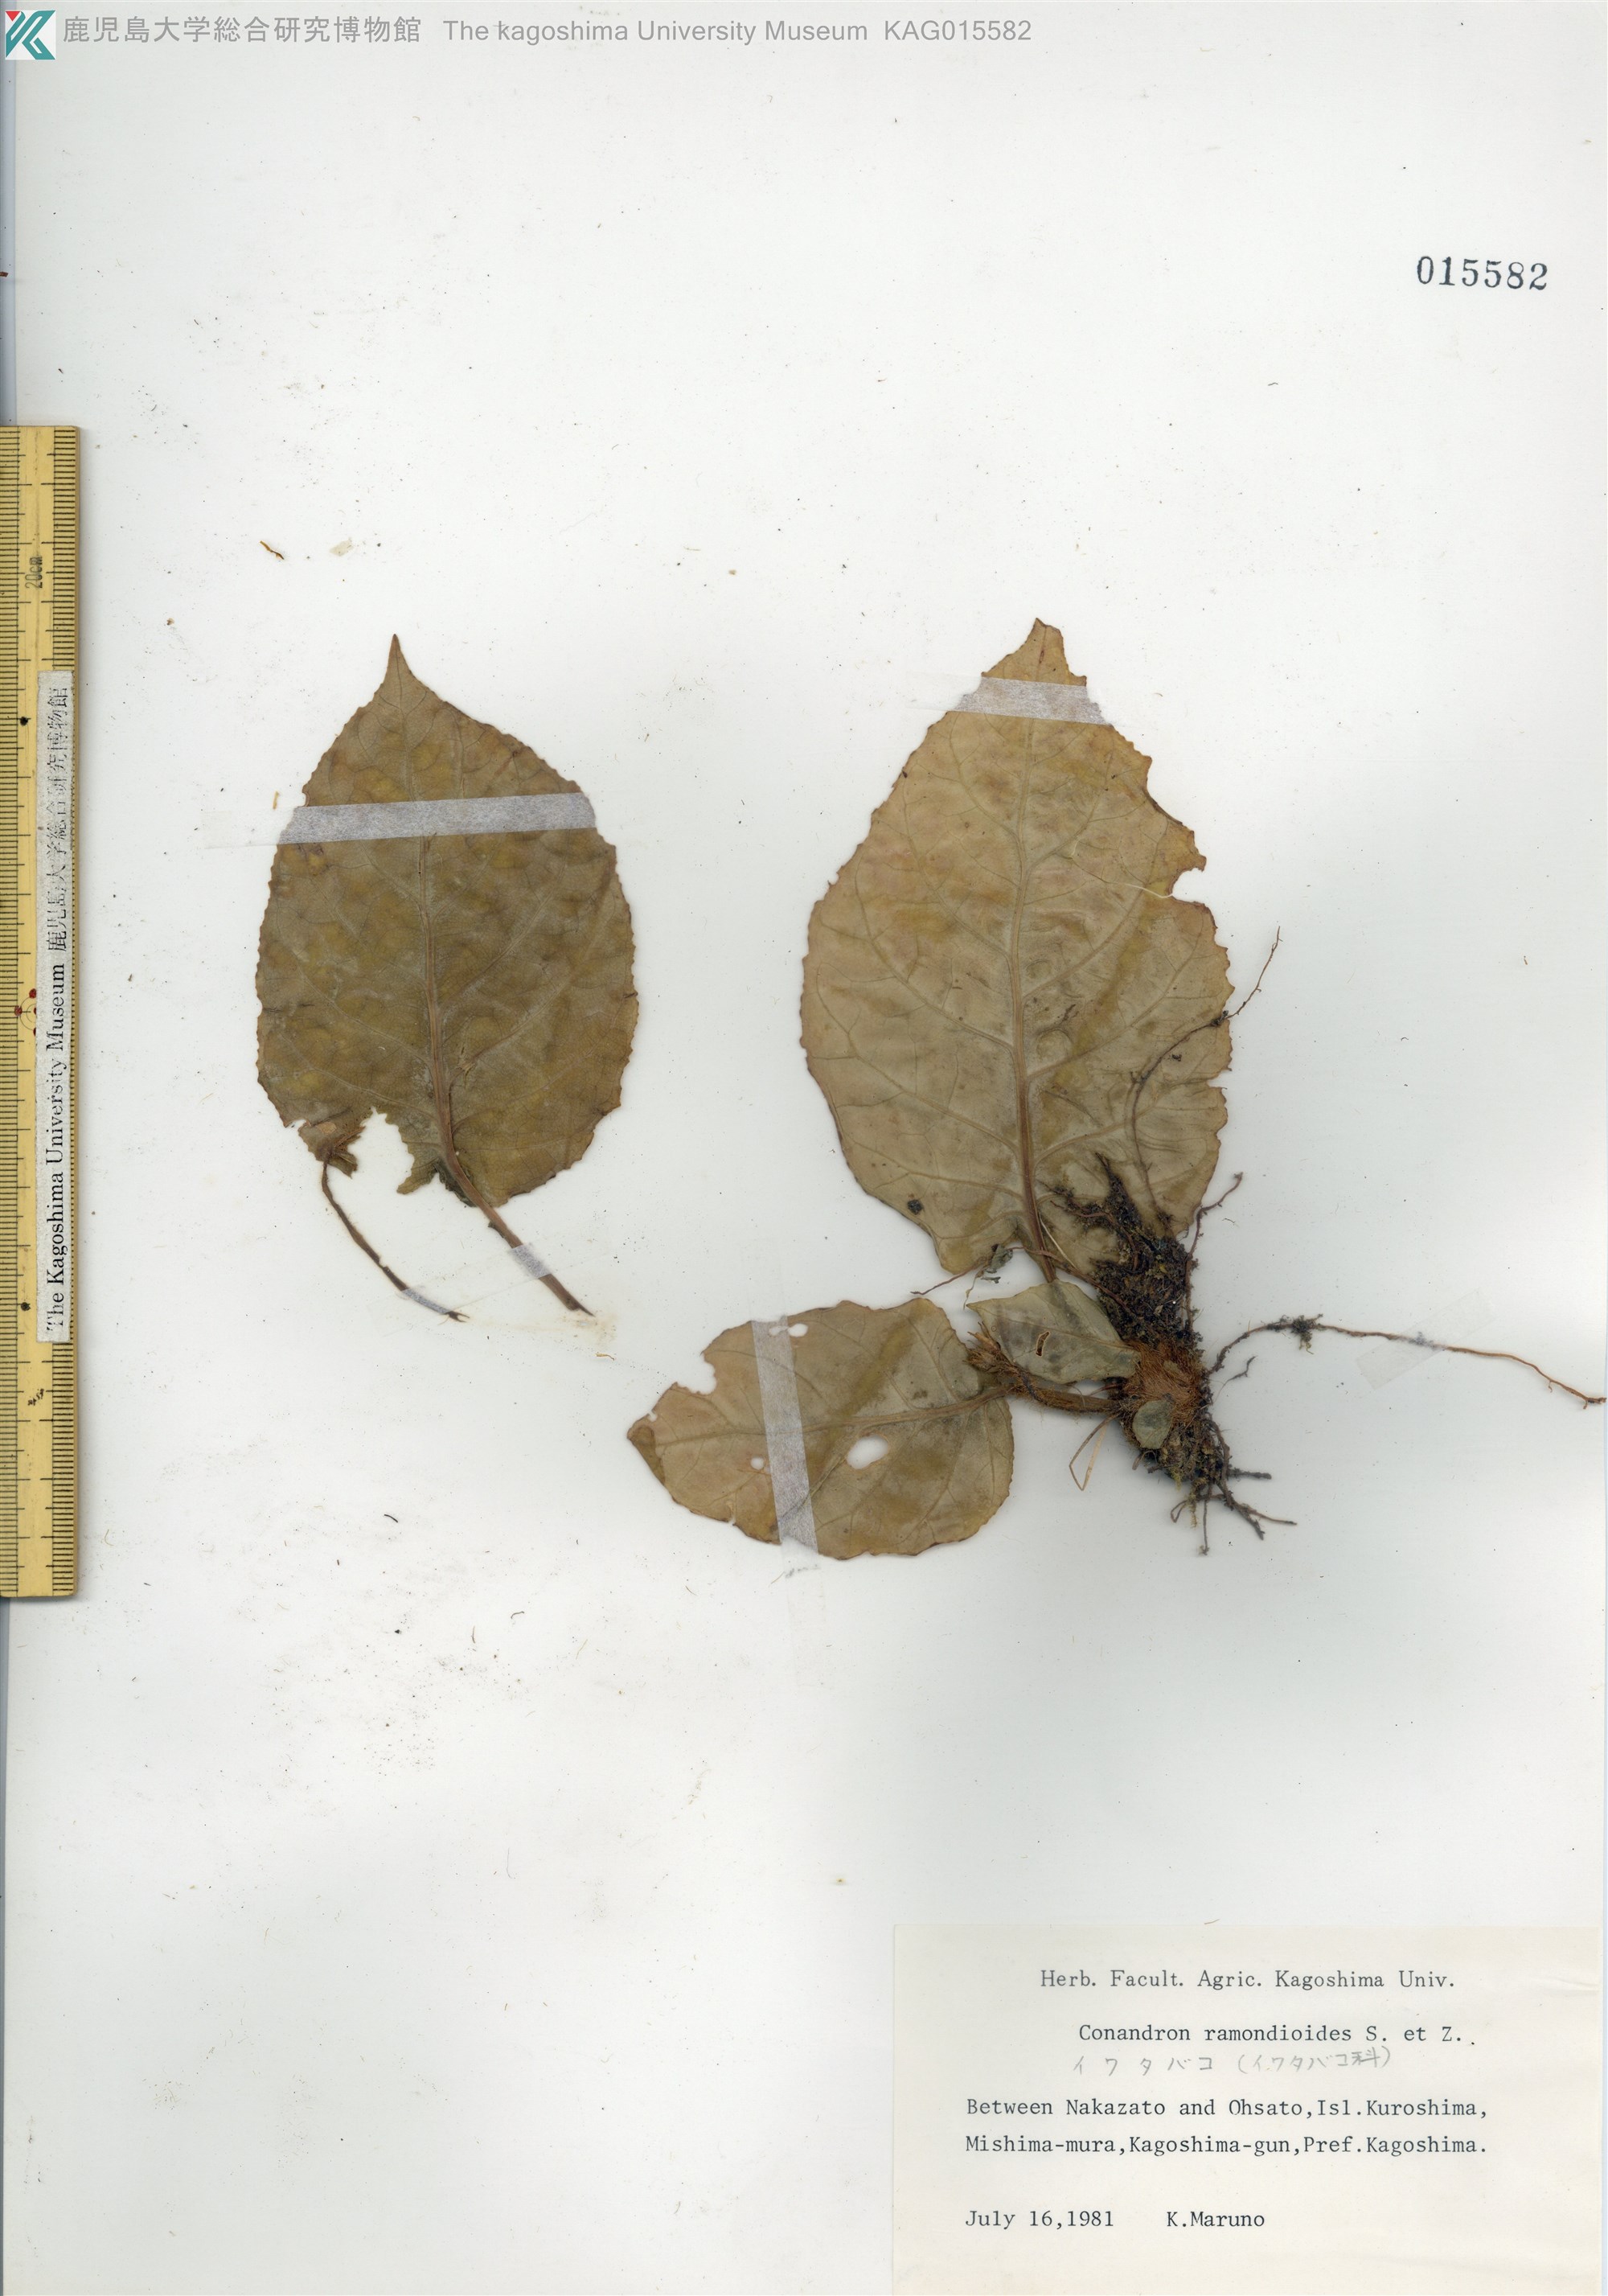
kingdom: Plantae
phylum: Tracheophyta
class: Magnoliopsida
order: Lamiales
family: Gesneriaceae
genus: Conandron
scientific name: Conandron ramondioides
